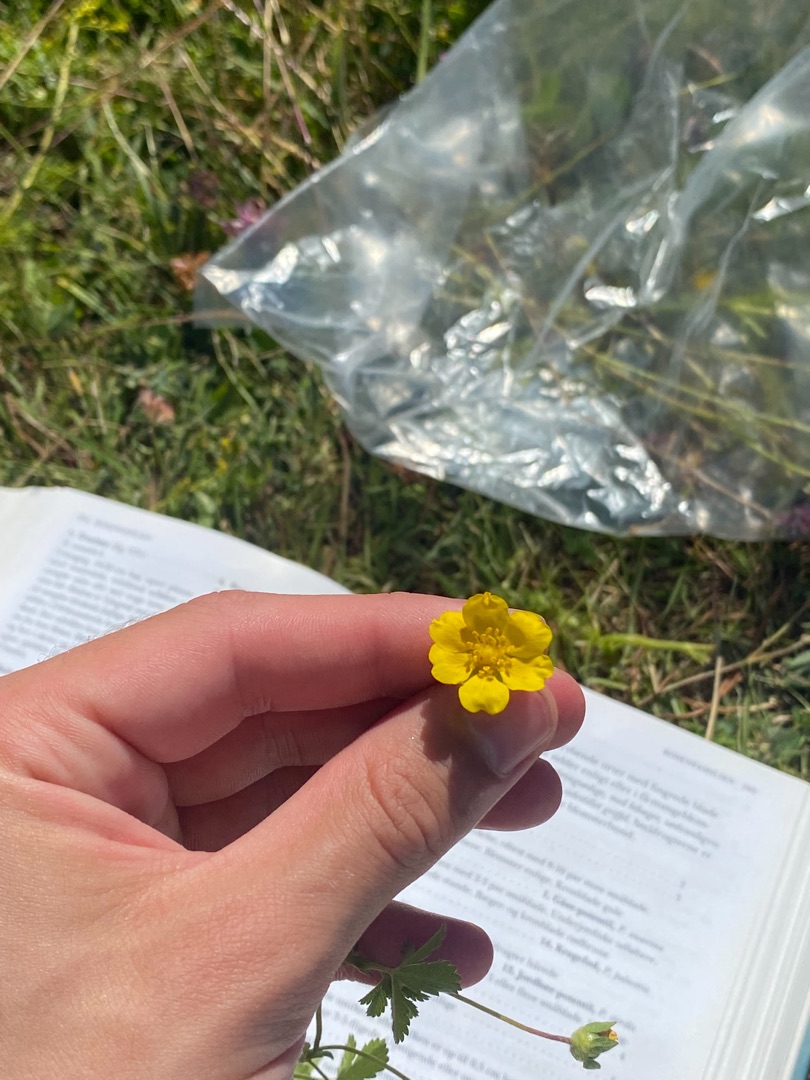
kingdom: Plantae
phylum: Tracheophyta
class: Magnoliopsida
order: Rosales
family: Rosaceae
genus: Potentilla
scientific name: Potentilla reptans
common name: Krybende potentil
